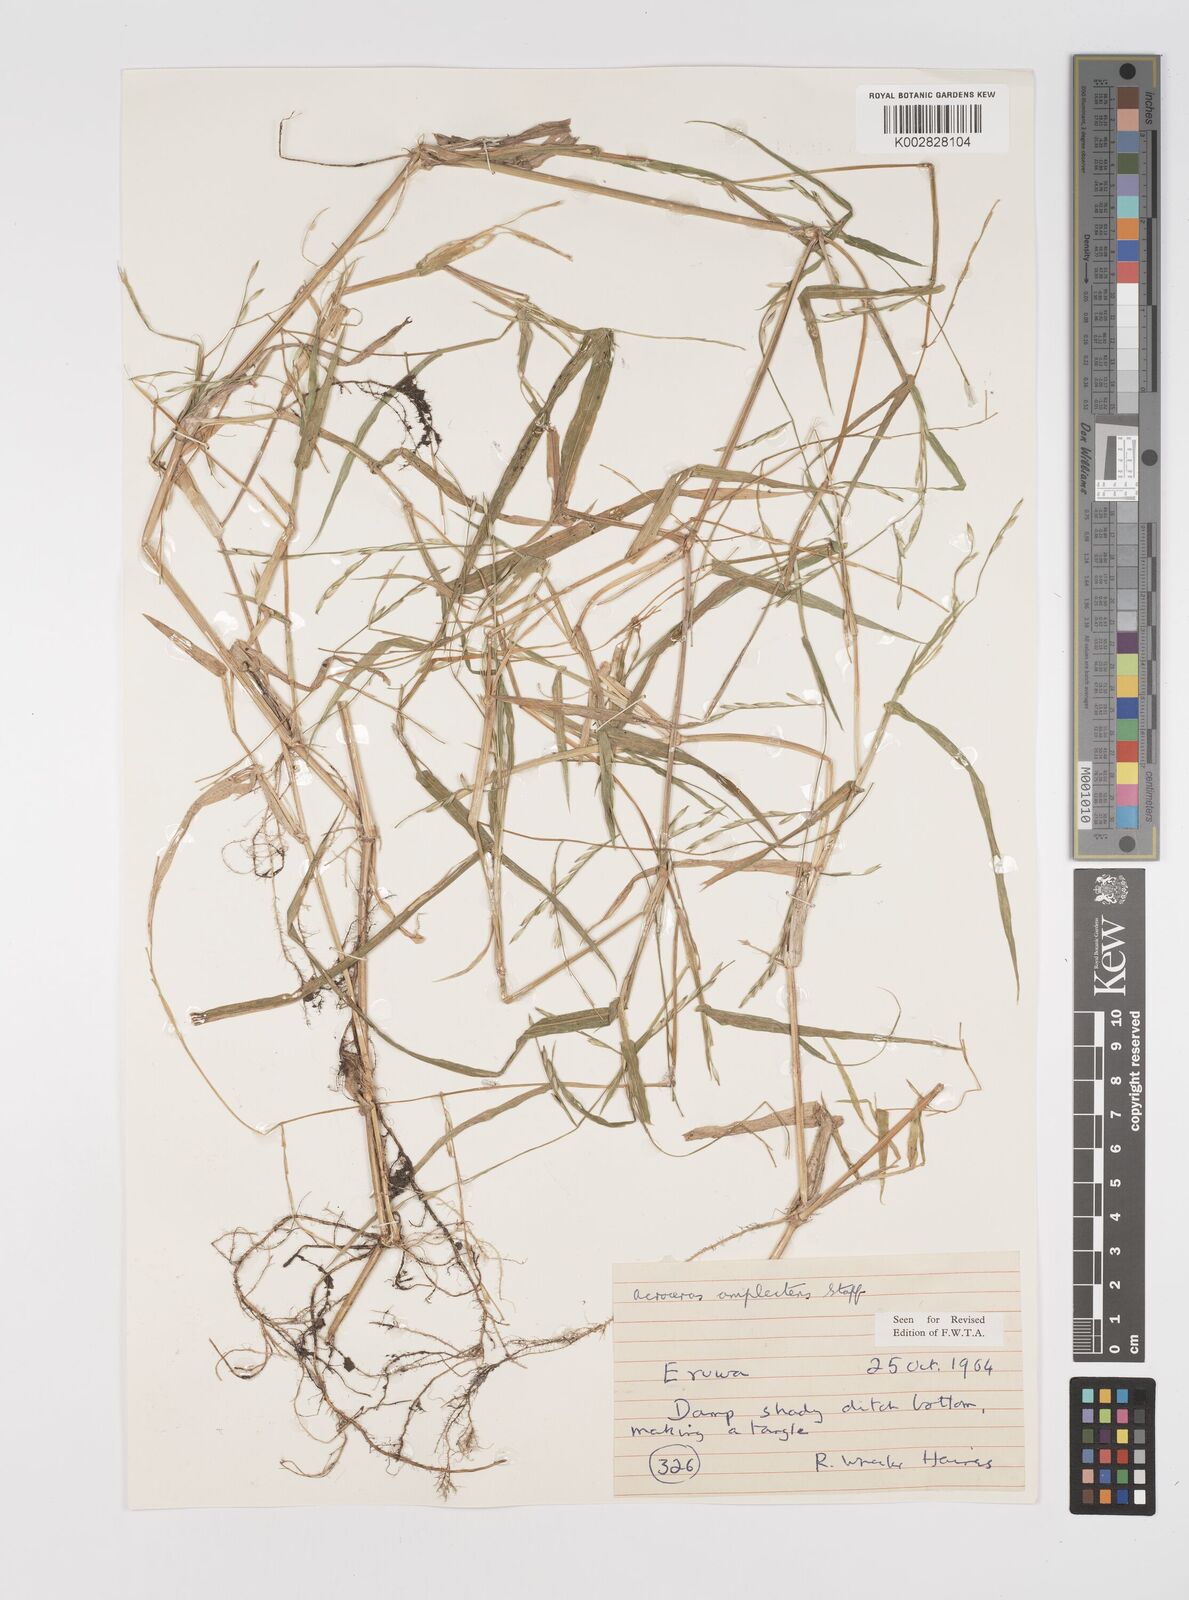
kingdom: Plantae
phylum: Tracheophyta
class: Liliopsida
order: Poales
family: Poaceae
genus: Acroceras
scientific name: Acroceras amplectens
